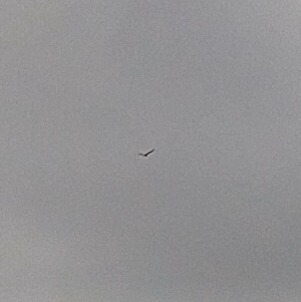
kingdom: Animalia
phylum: Chordata
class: Aves
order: Accipitriformes
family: Accipitridae
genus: Haliaeetus
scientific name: Haliaeetus albicilla
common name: Havørn
